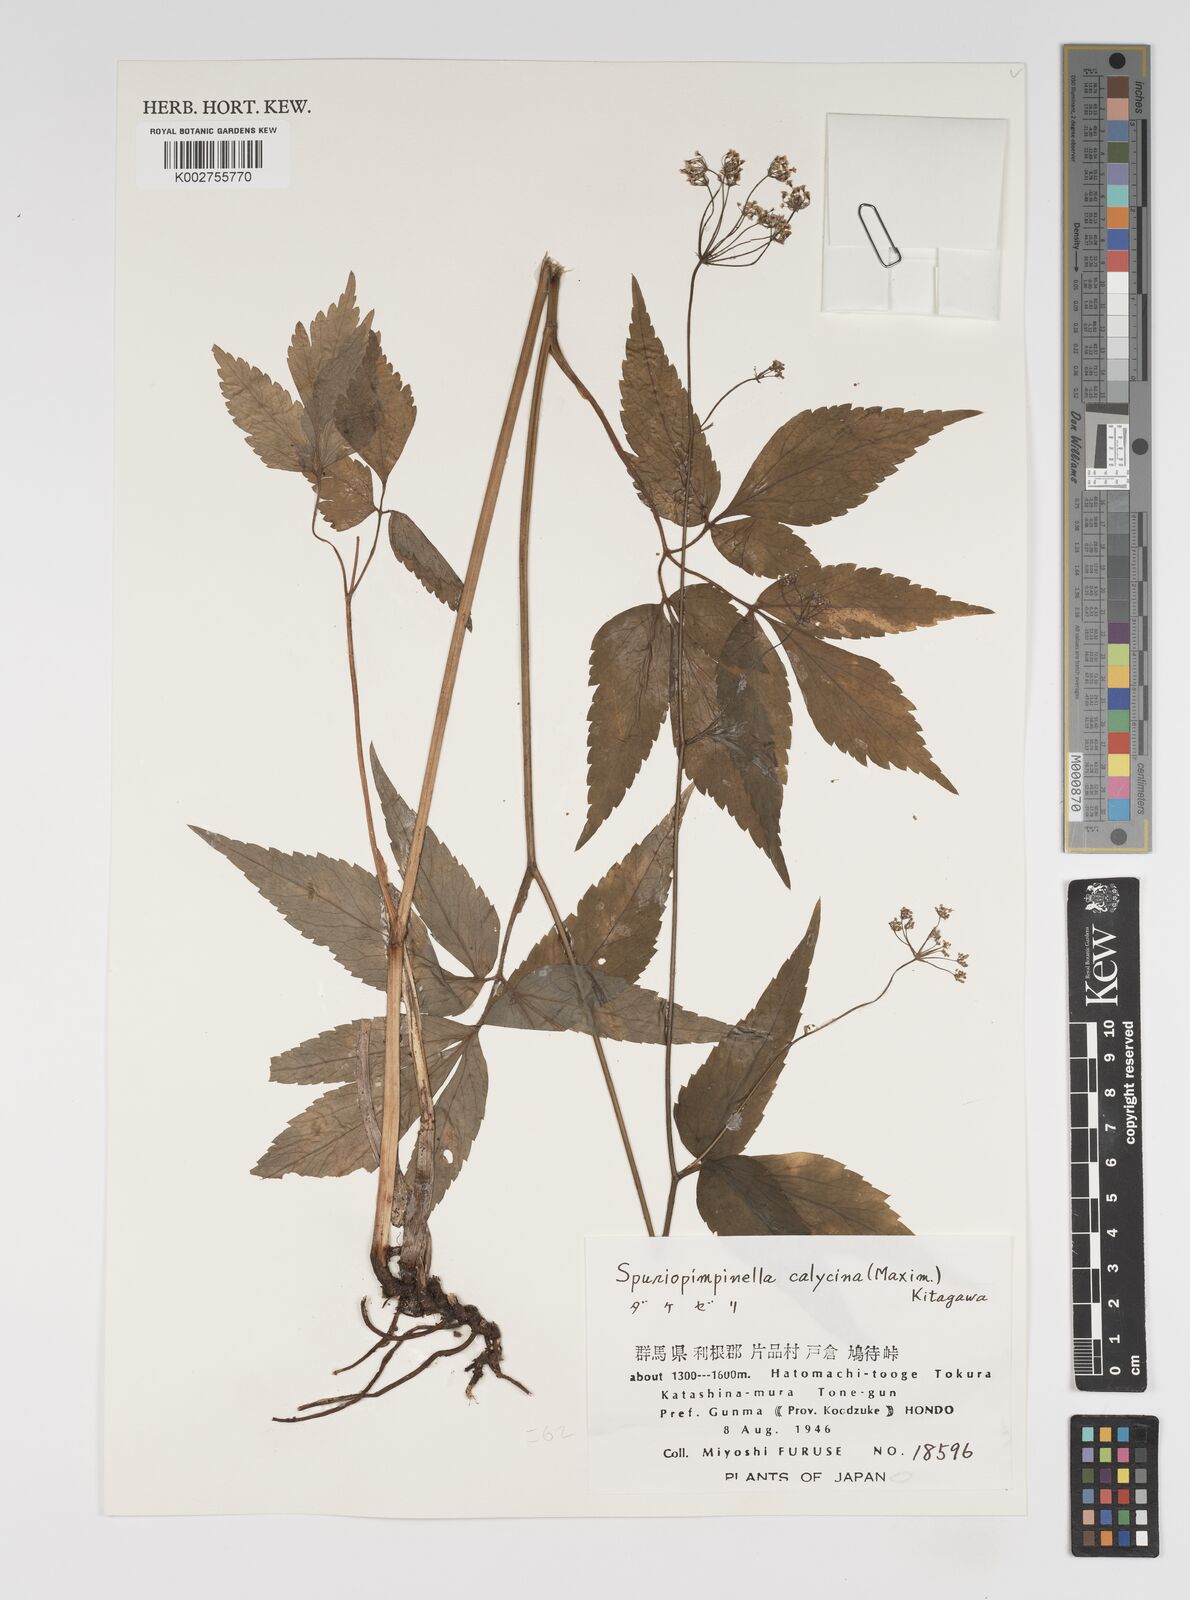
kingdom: Plantae
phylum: Tracheophyta
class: Magnoliopsida
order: Apiales
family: Apiaceae
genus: Spuriopimpinella
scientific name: Spuriopimpinella calycina
